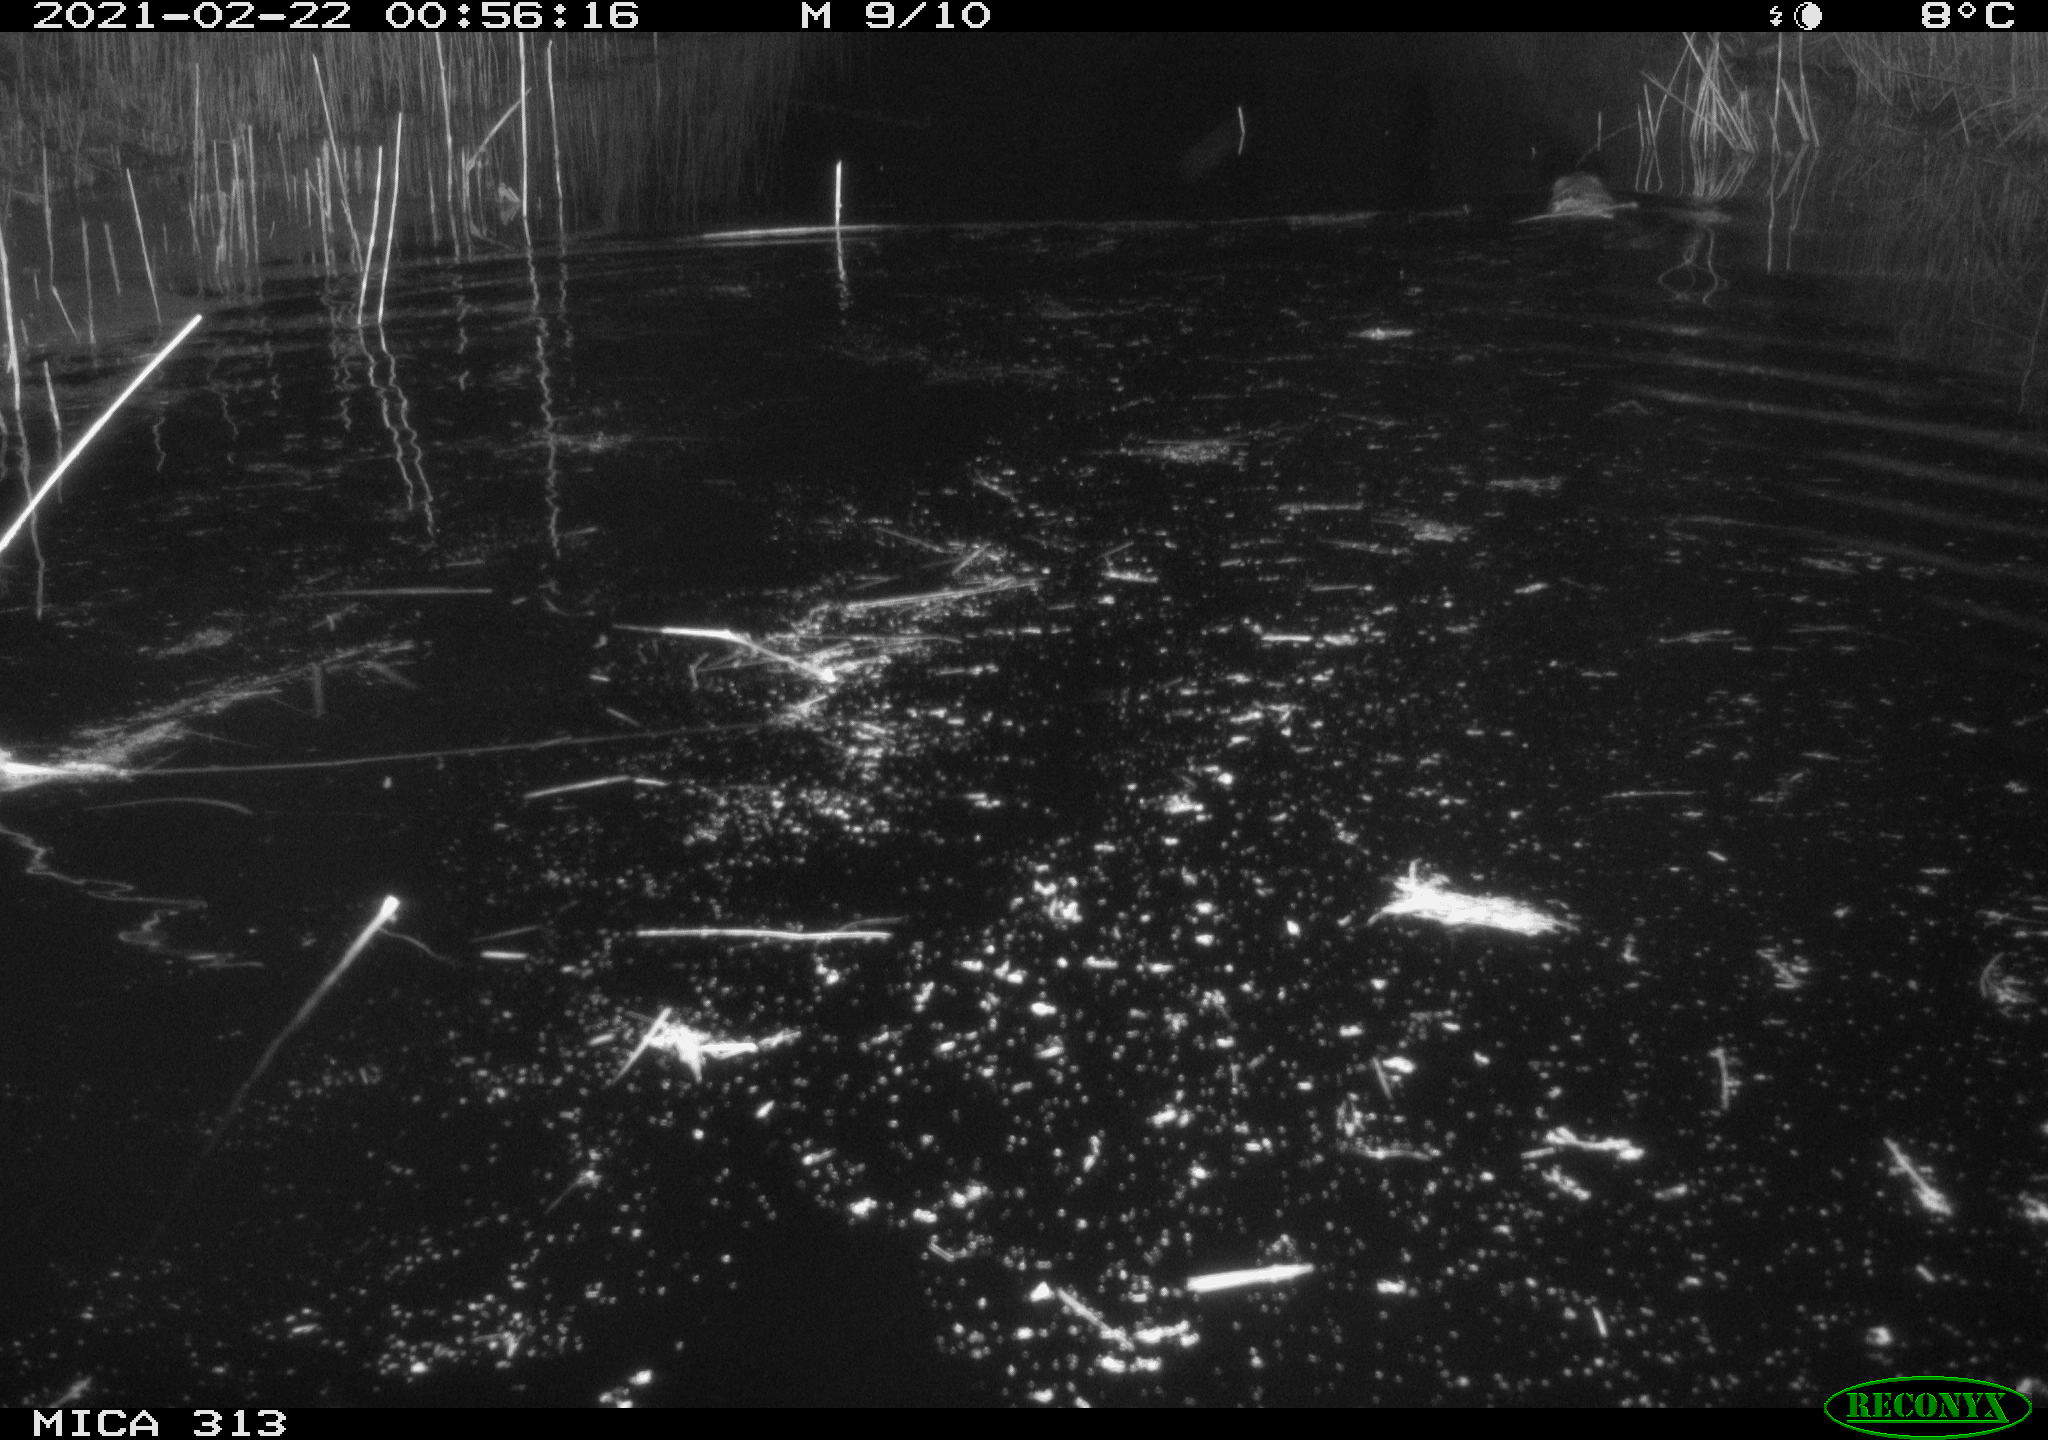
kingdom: Animalia
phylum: Chordata
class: Mammalia
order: Rodentia
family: Cricetidae
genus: Ondatra
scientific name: Ondatra zibethicus
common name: Muskrat
